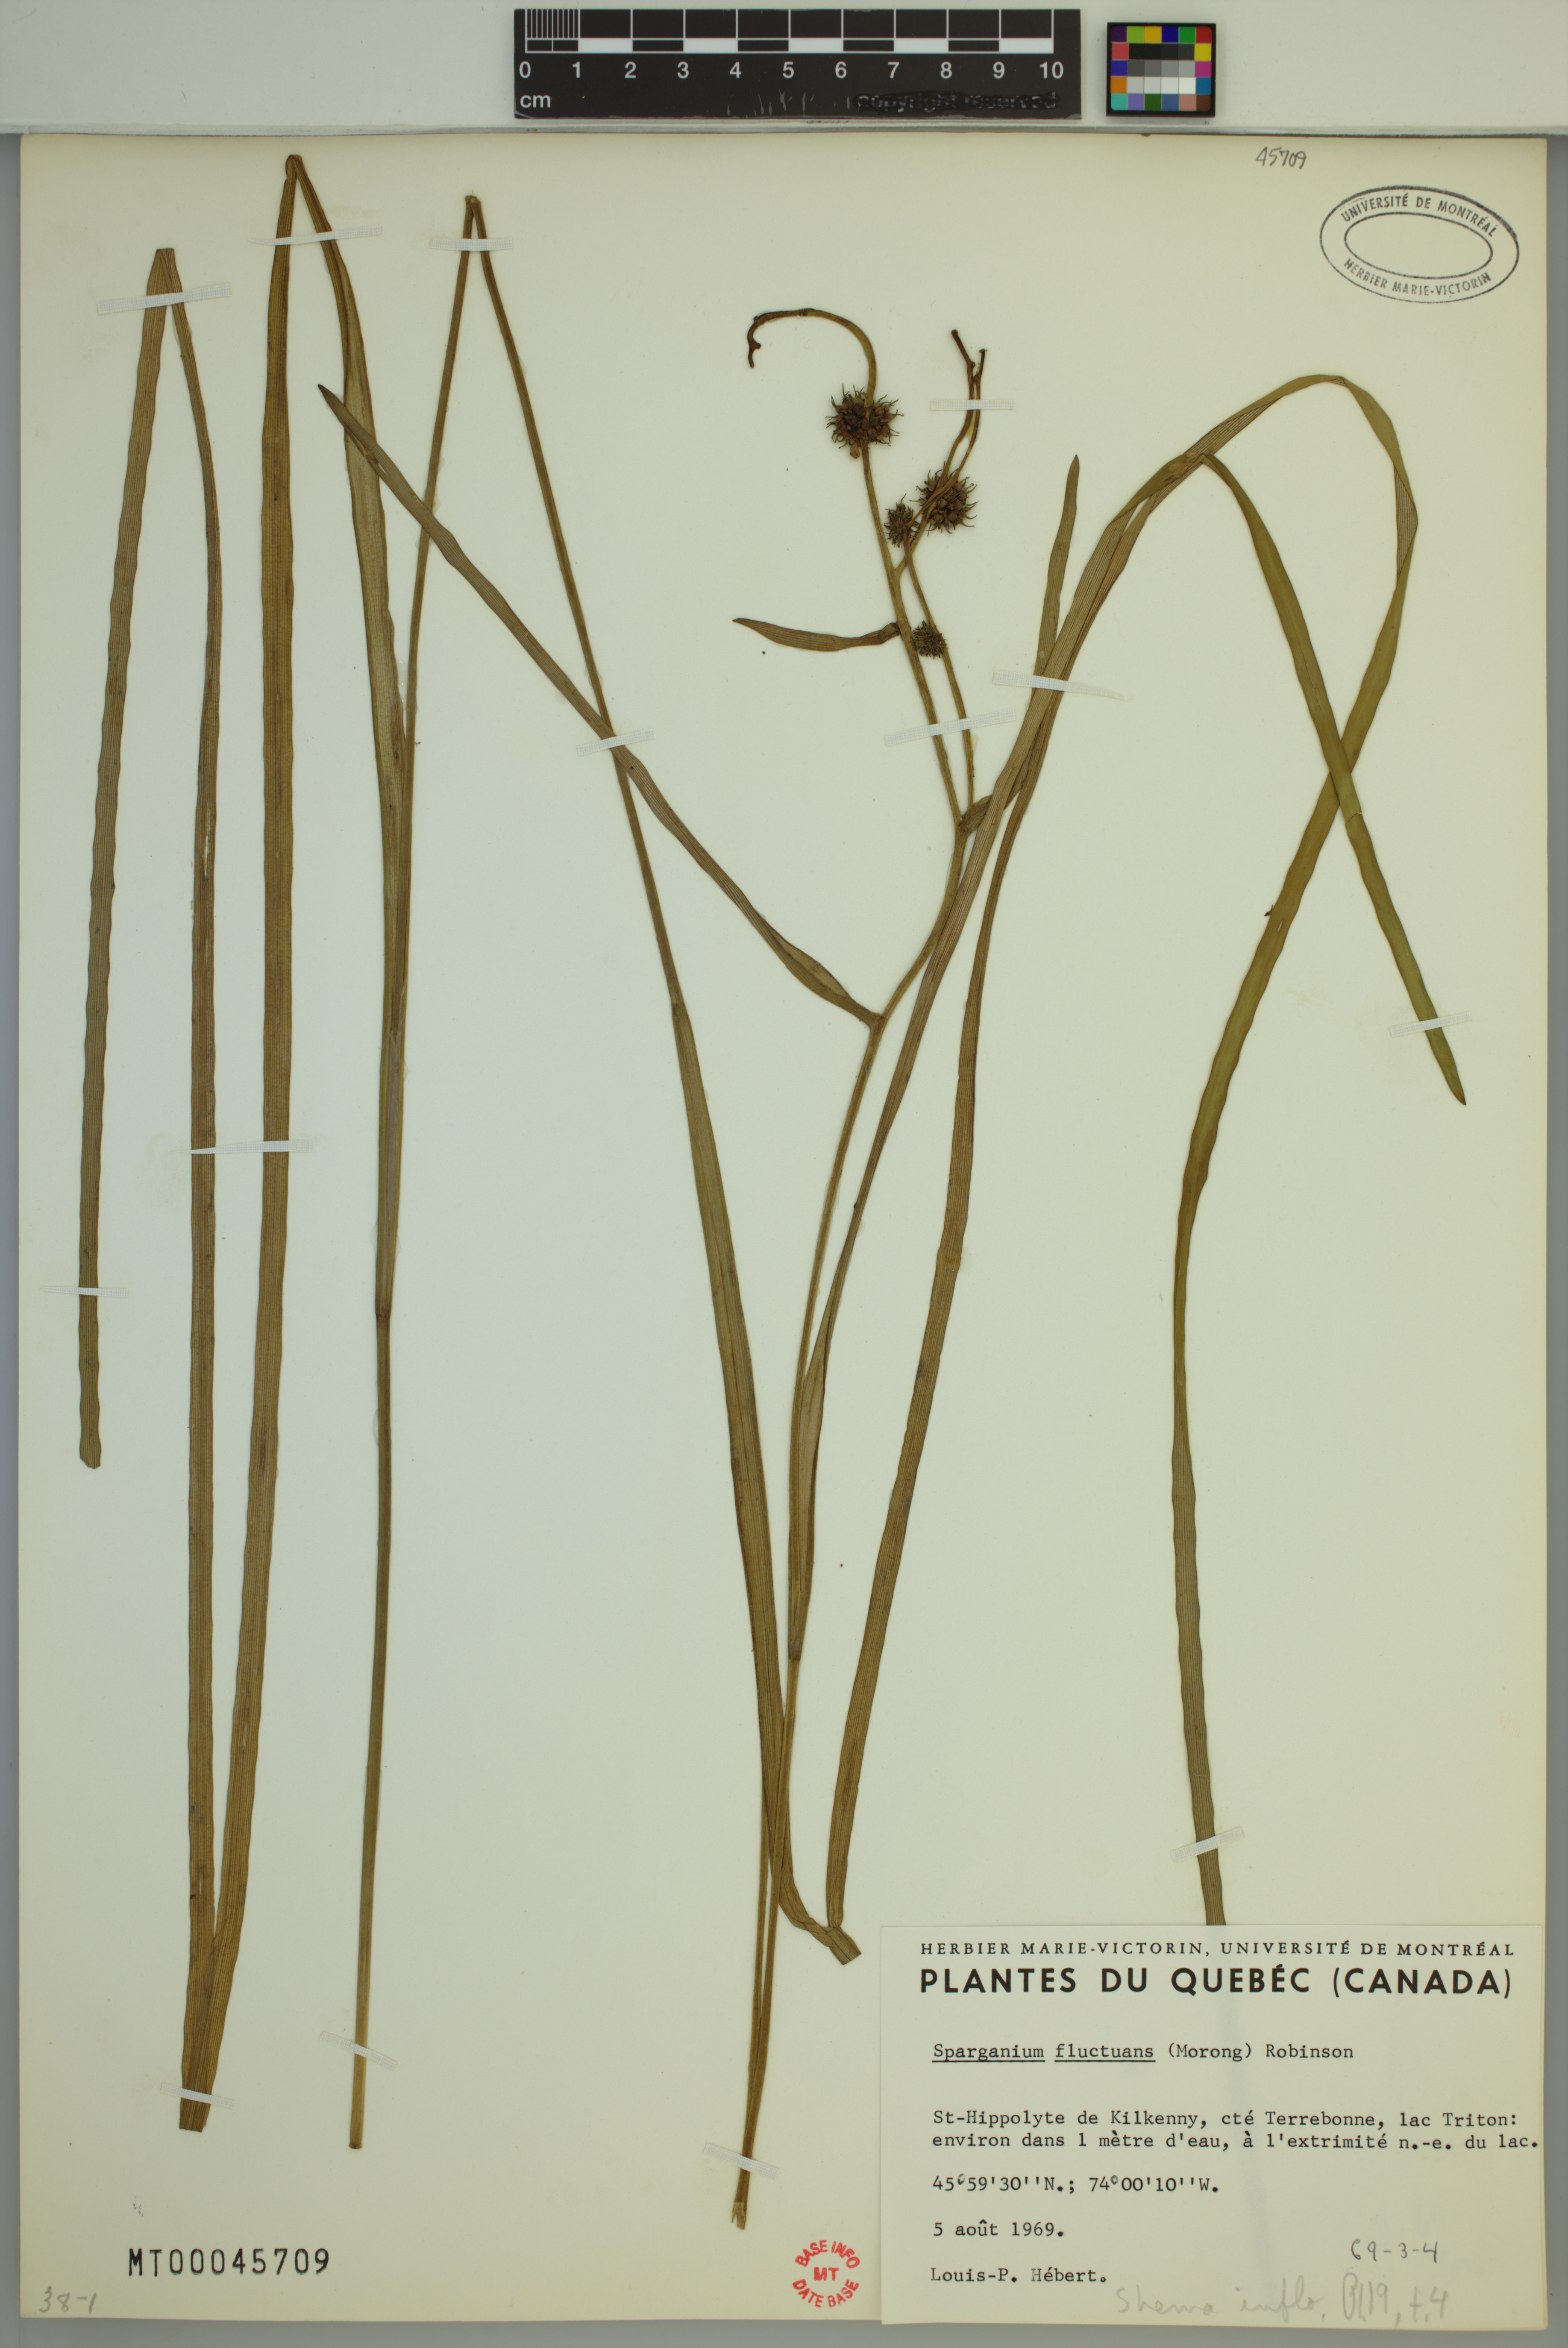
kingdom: Plantae
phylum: Tracheophyta
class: Liliopsida
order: Poales
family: Typhaceae
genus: Sparganium
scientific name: Sparganium fluctuans
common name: Floating burreed
